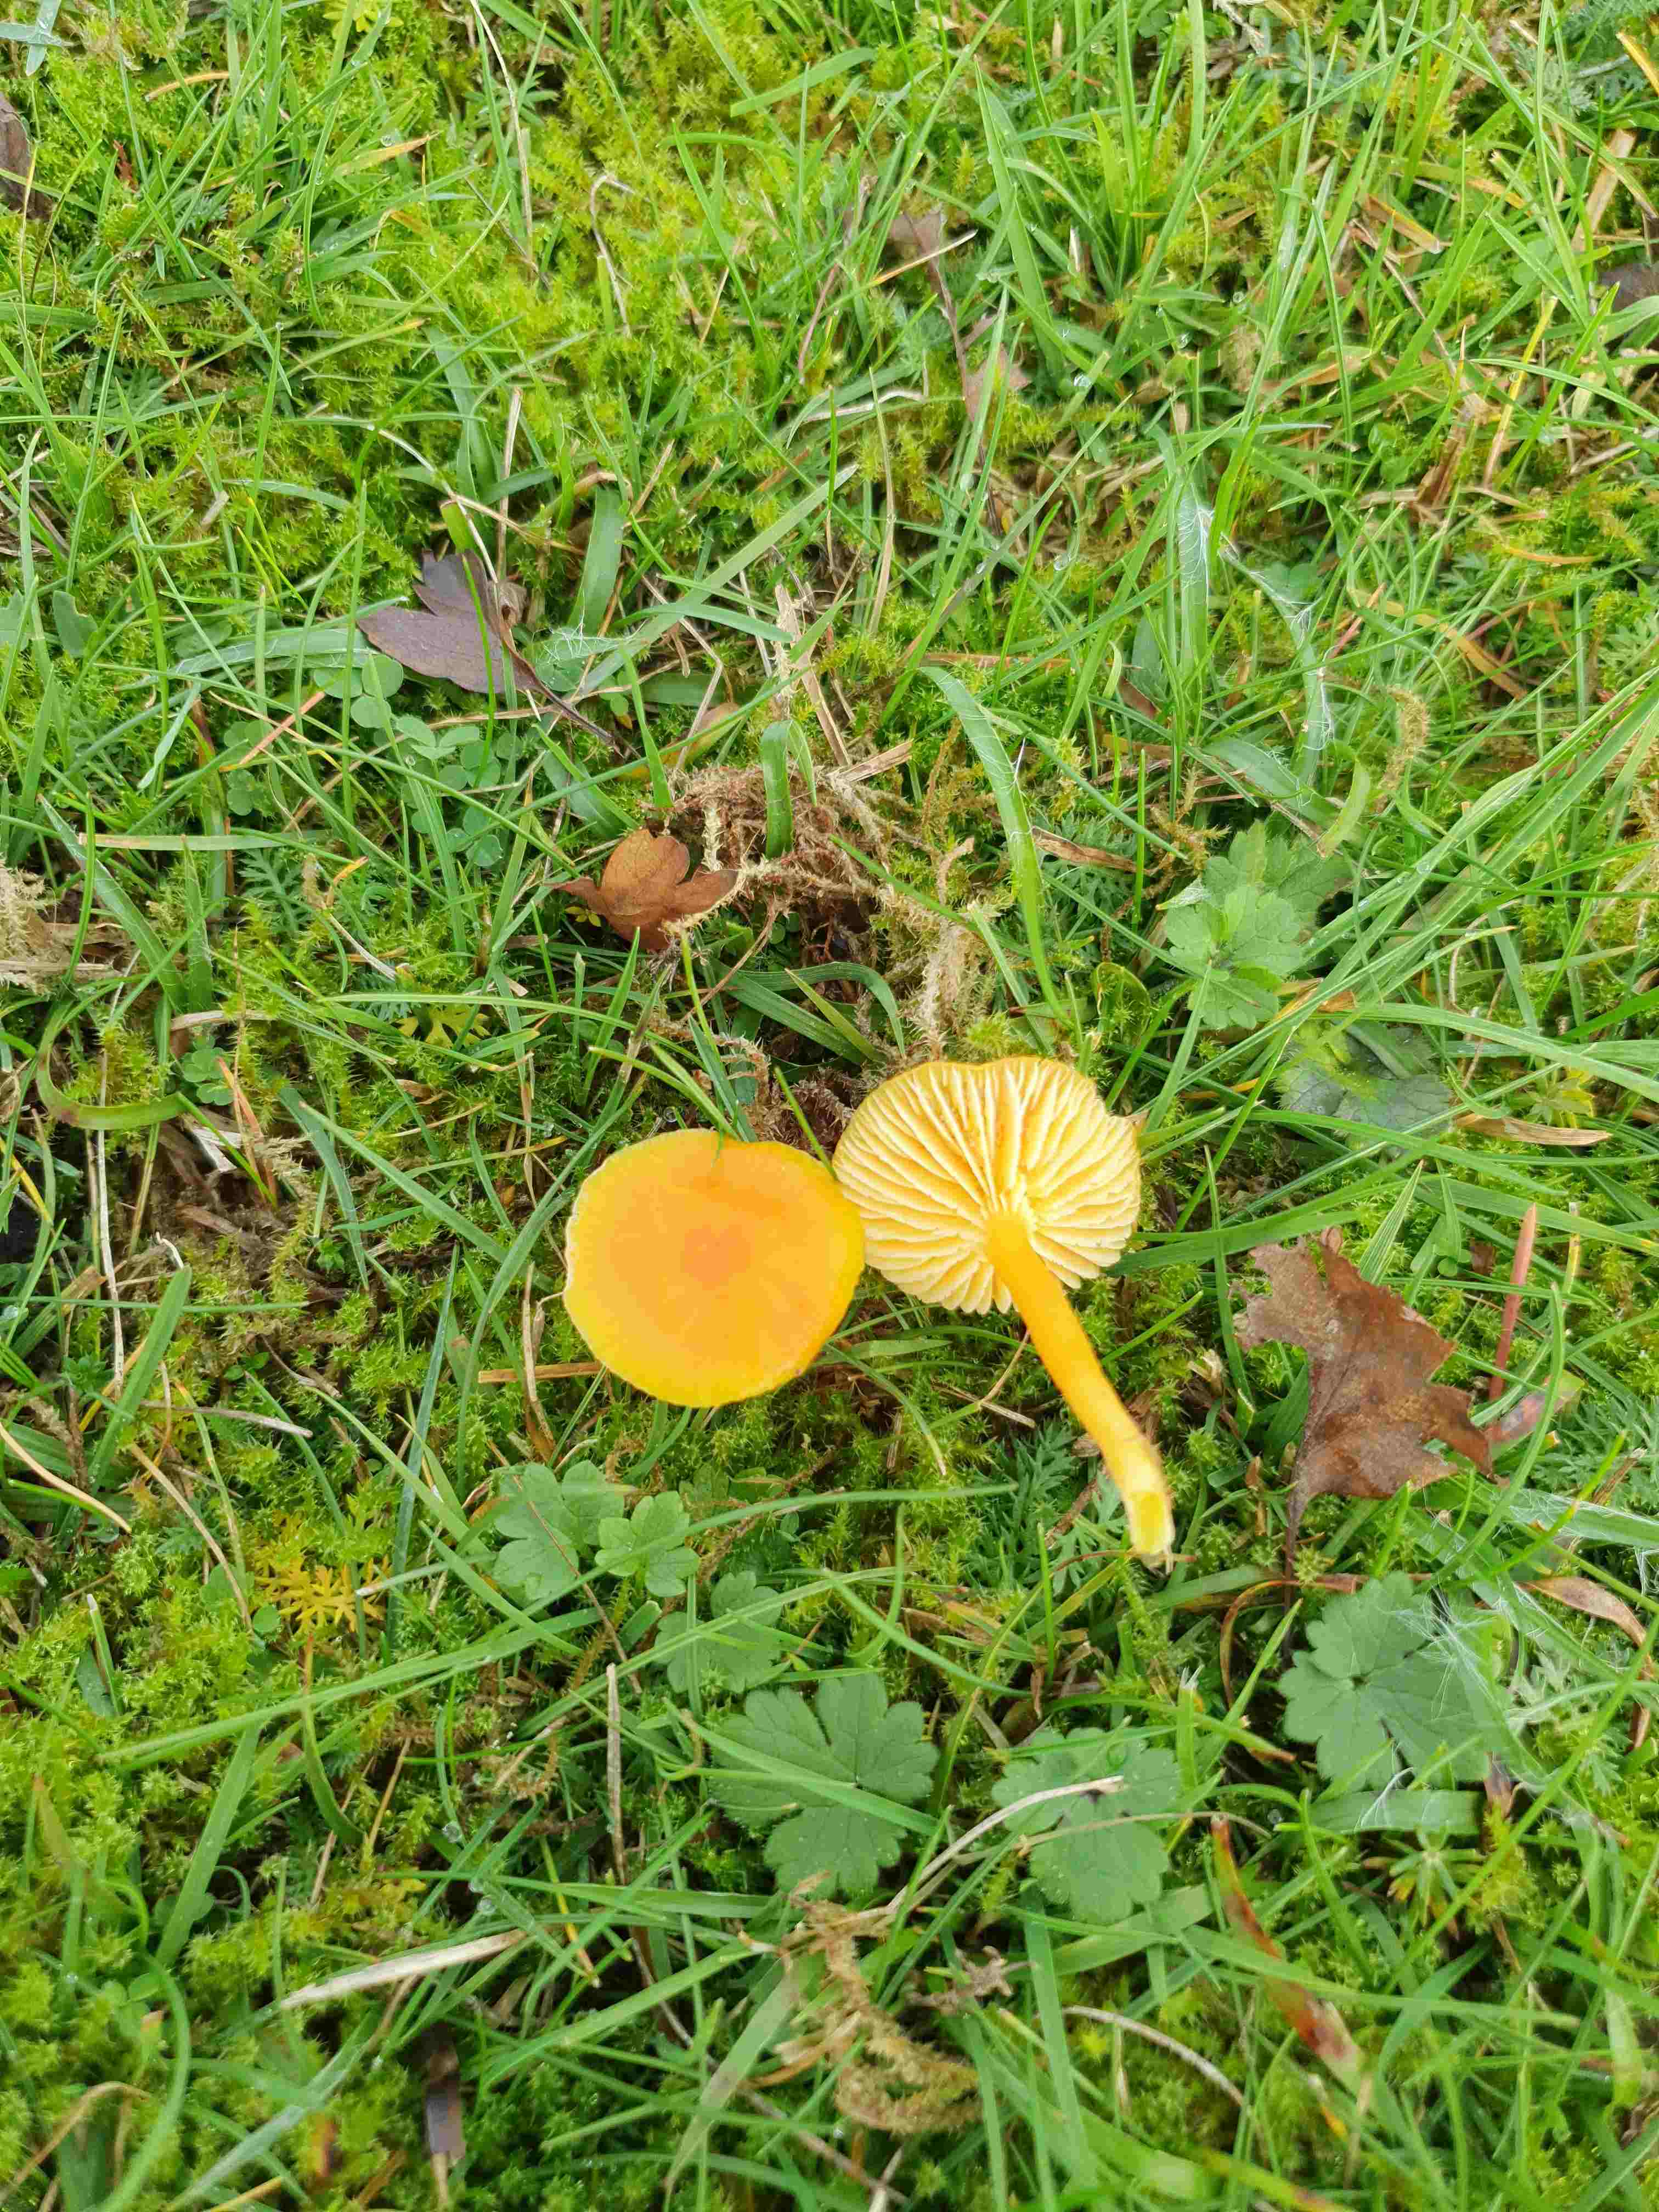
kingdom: Fungi
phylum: Basidiomycota
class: Agaricomycetes
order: Agaricales
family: Hygrophoraceae
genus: Hygrocybe
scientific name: Hygrocybe ceracea
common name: voksgul vokshat
